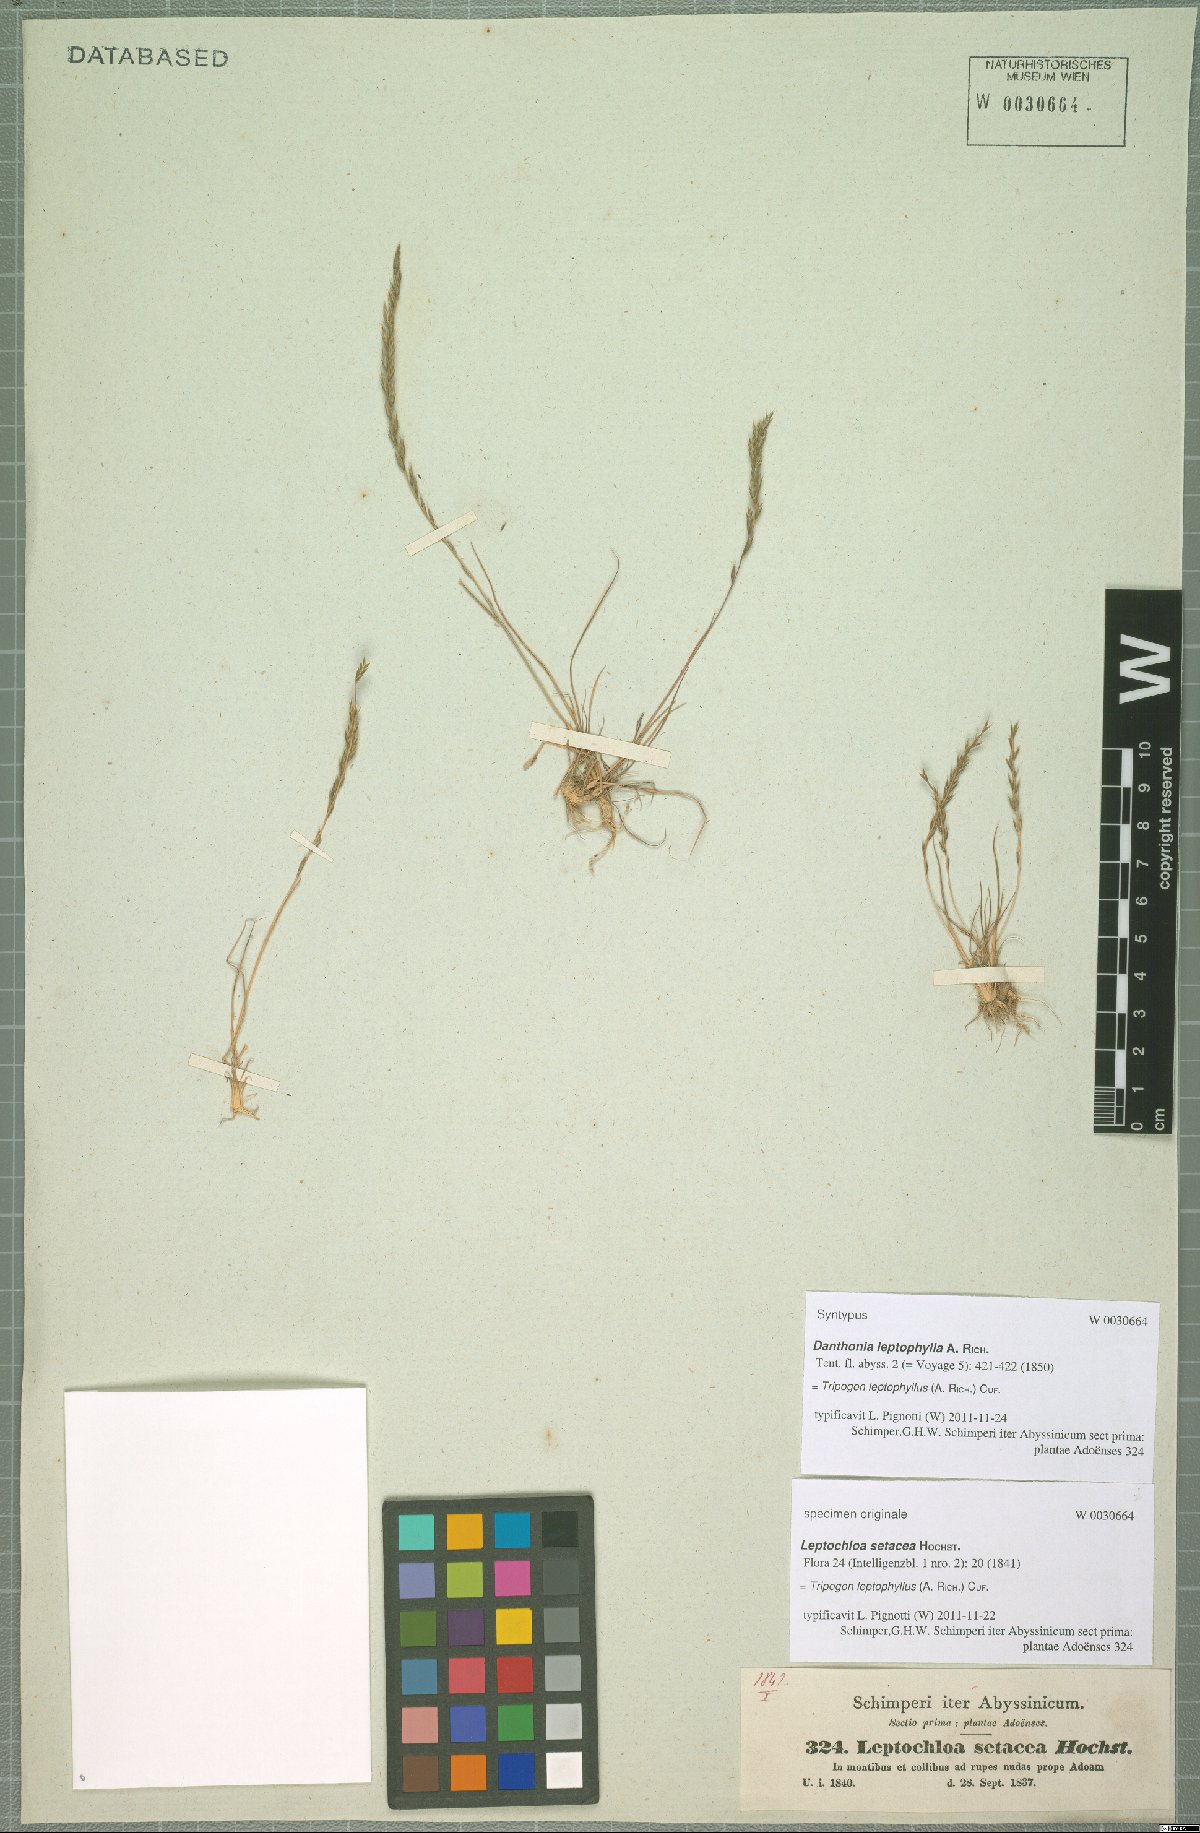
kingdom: Plantae
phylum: Tracheophyta
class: Liliopsida
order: Poales
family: Poaceae
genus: Tripogon
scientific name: Tripogon leptophyllus
